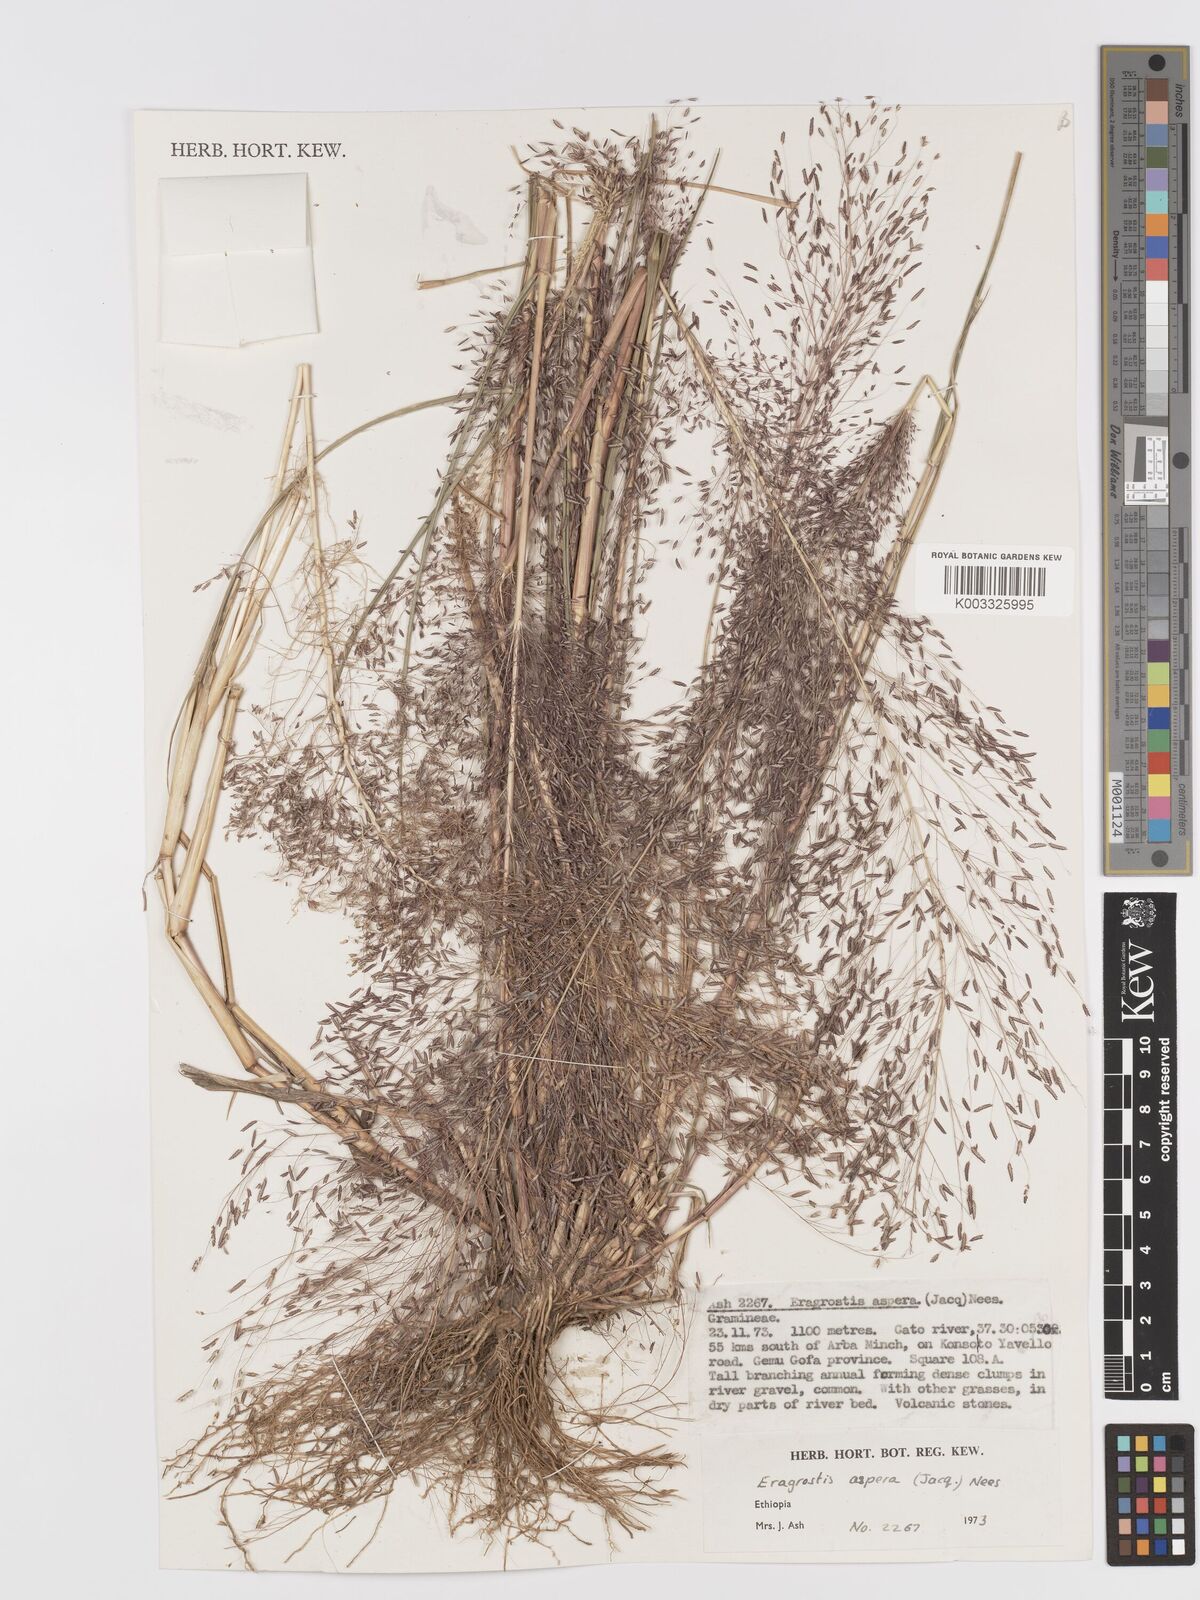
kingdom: Plantae
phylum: Tracheophyta
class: Liliopsida
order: Poales
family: Poaceae
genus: Eragrostis
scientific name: Eragrostis aspera
